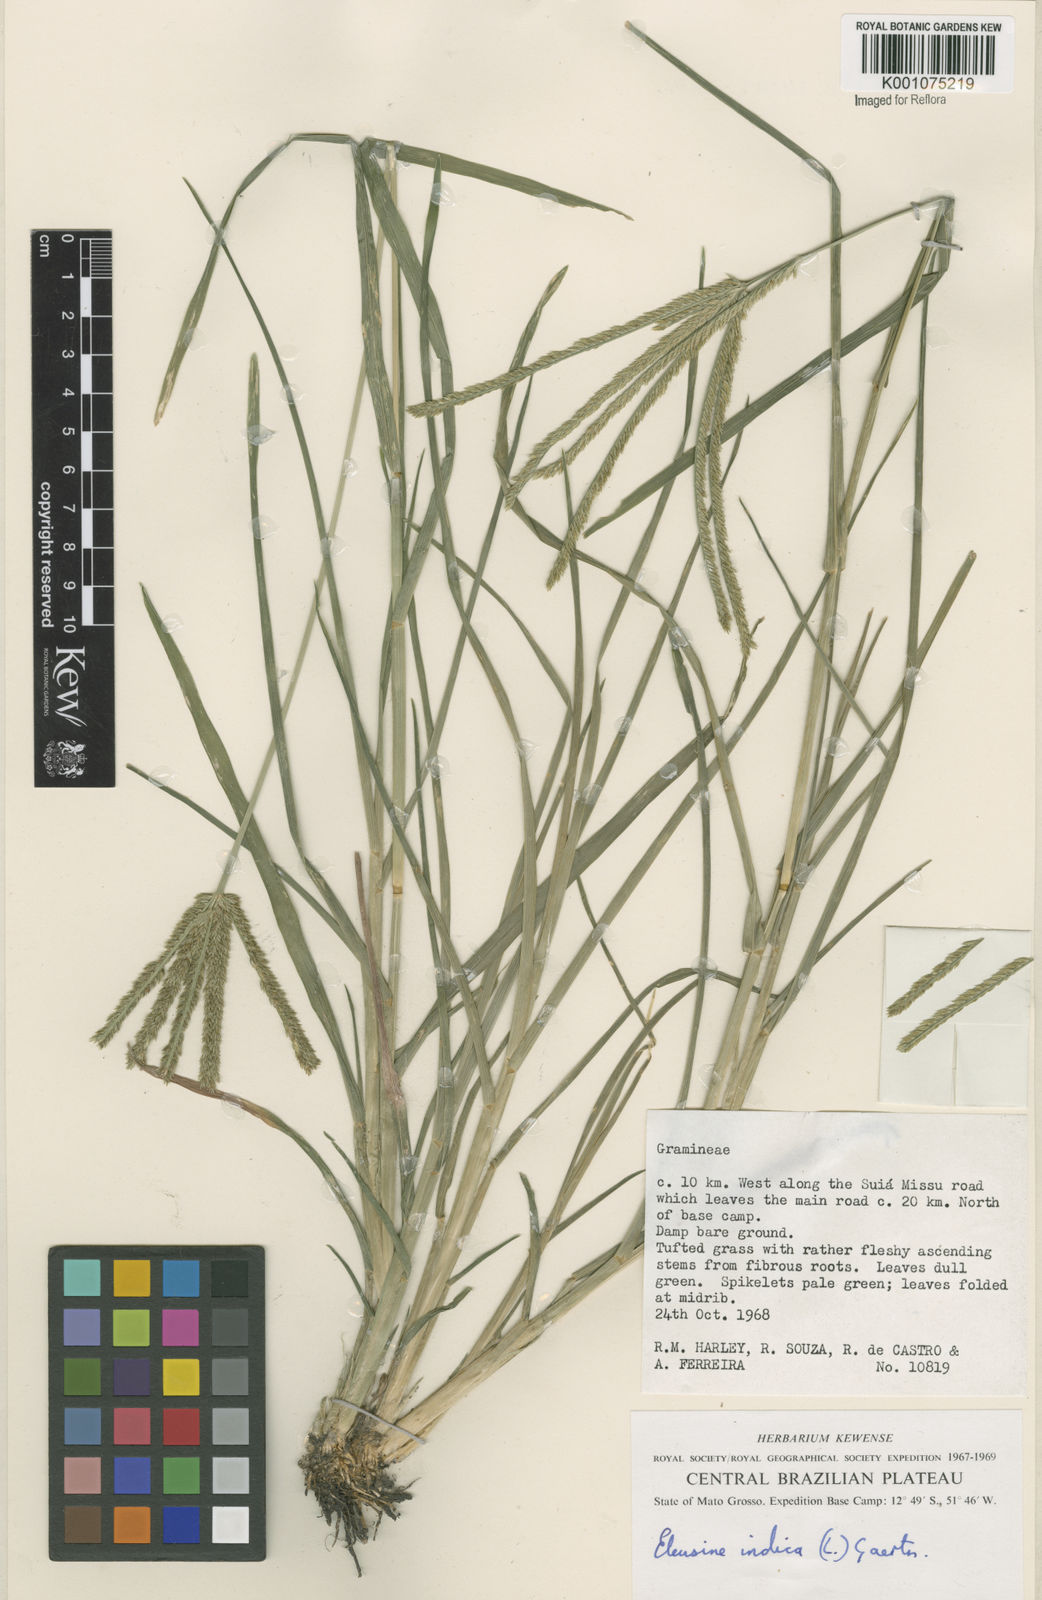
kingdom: Plantae
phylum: Tracheophyta
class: Liliopsida
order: Poales
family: Poaceae
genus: Eleusine
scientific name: Eleusine indica
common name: Yard-grass
